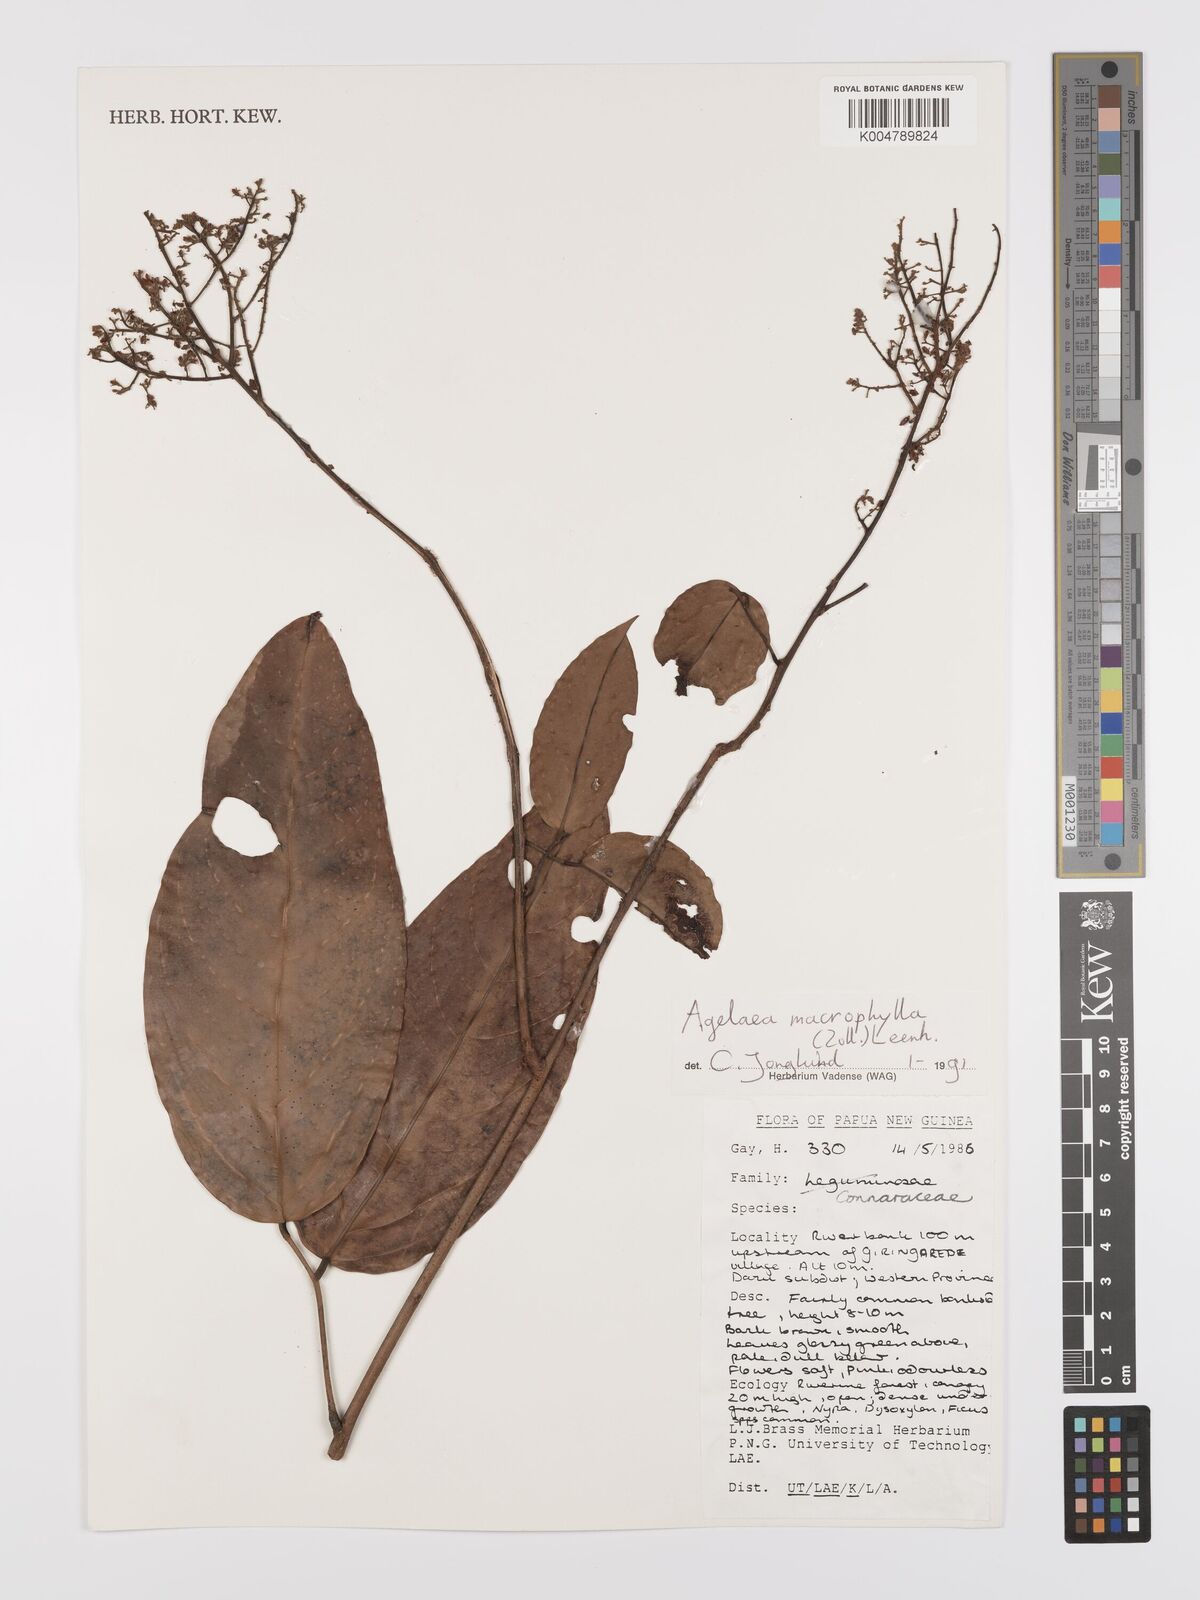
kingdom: Plantae
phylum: Tracheophyta
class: Magnoliopsida
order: Oxalidales
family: Connaraceae
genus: Agelaea
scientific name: Agelaea macrophylla
